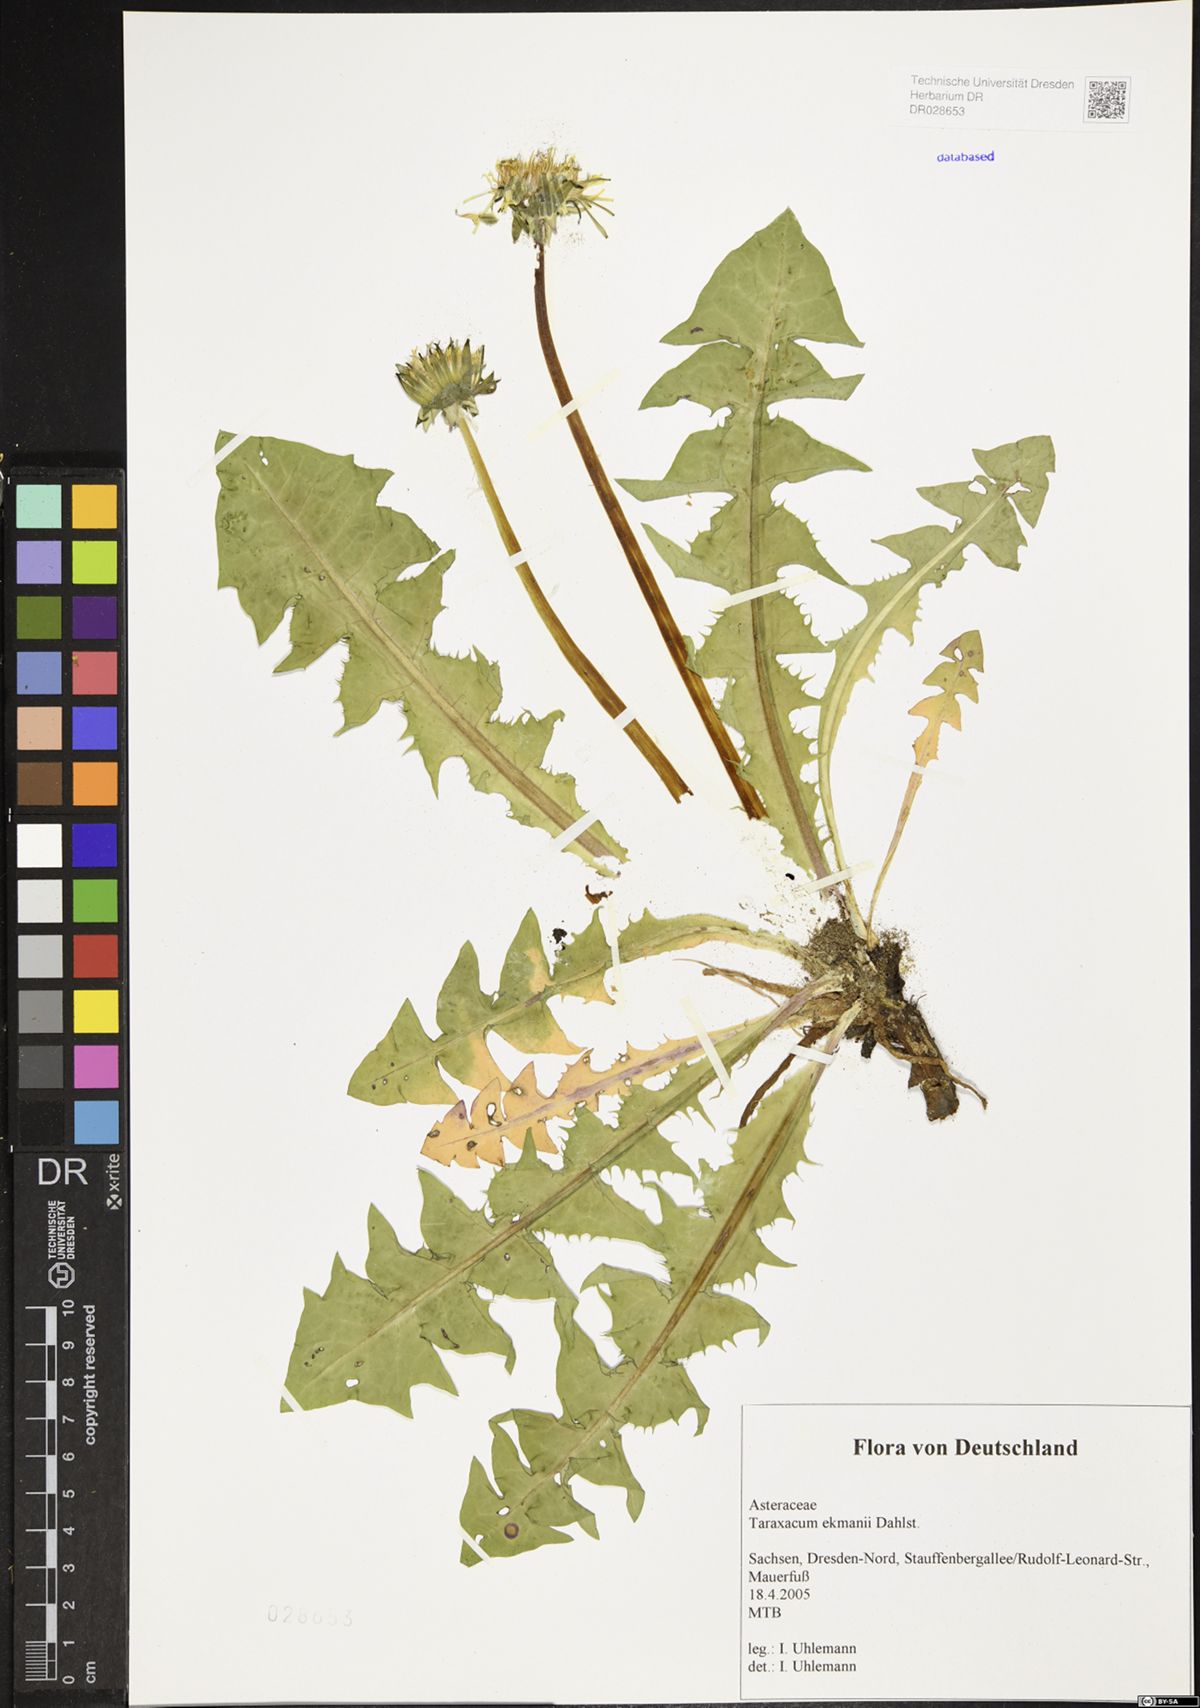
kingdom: Plantae
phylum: Tracheophyta
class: Magnoliopsida
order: Asterales
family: Asteraceae
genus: Taraxacum
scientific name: Taraxacum ekmanii
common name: Ekman's dandelion
